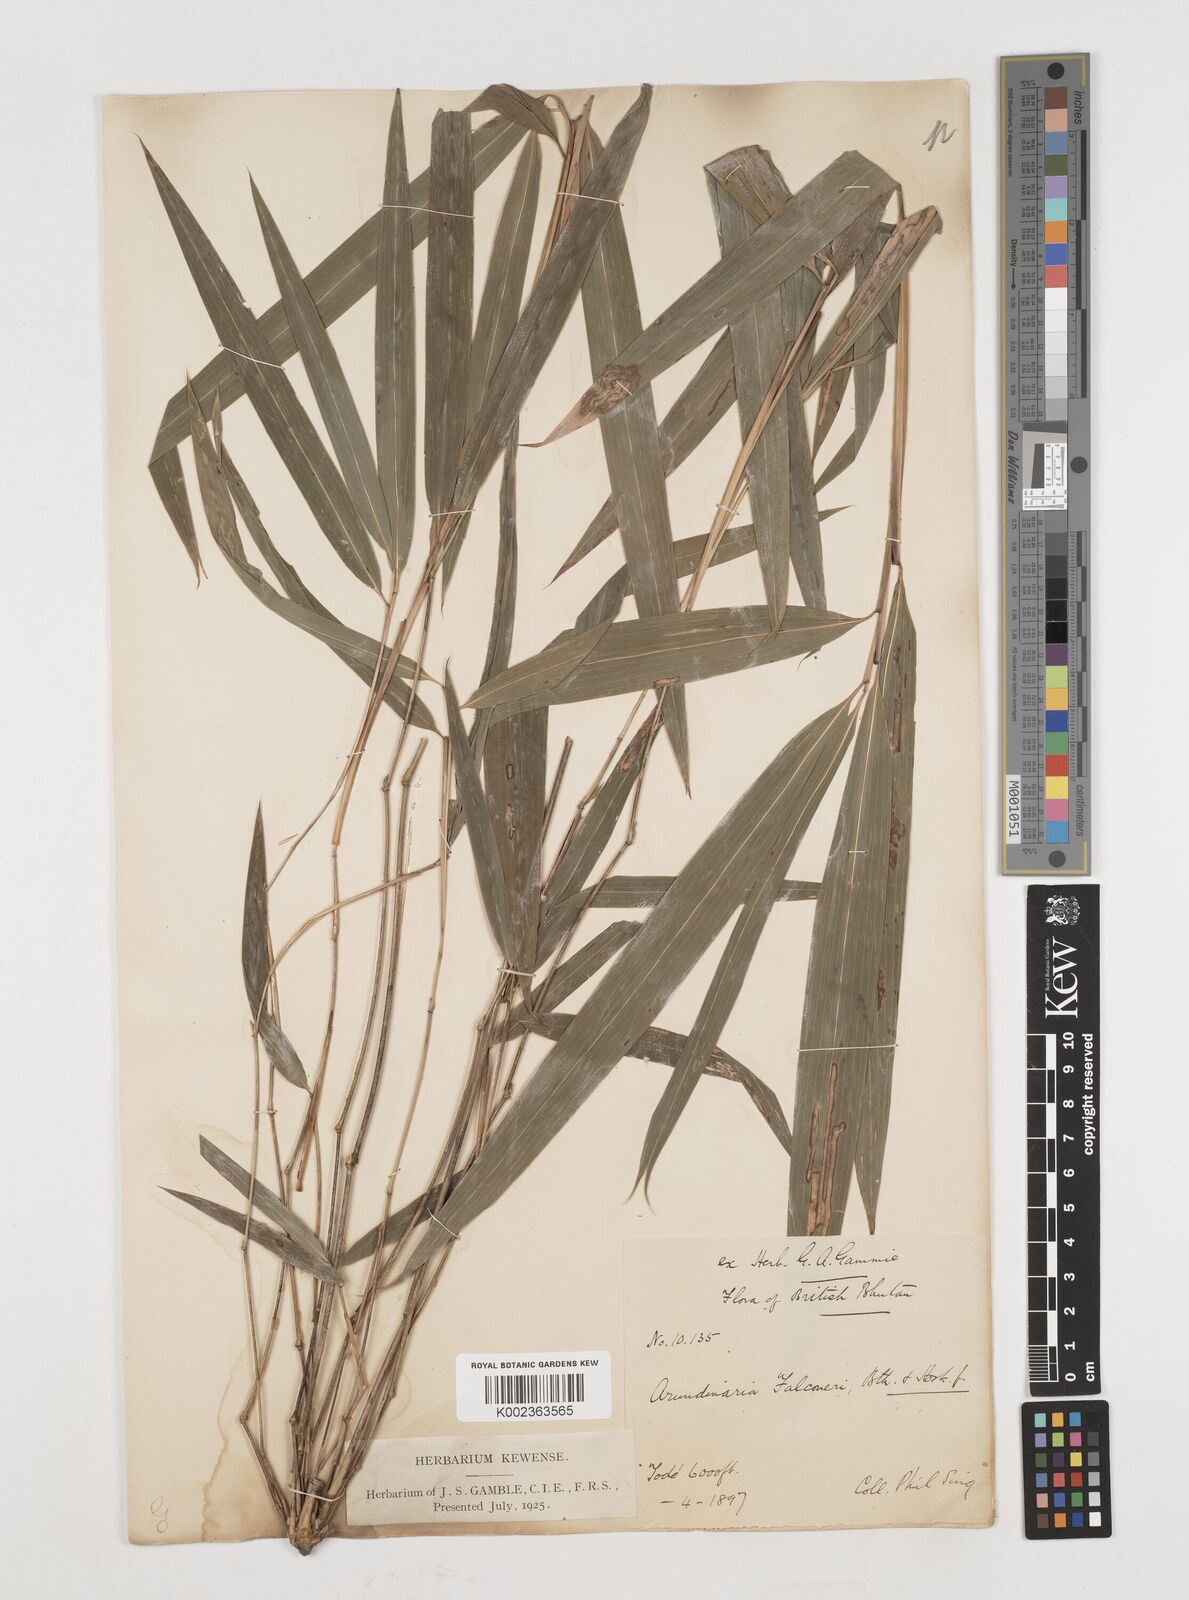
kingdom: Plantae
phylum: Tracheophyta
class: Liliopsida
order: Poales
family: Poaceae
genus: Himalayacalamus
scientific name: Himalayacalamus falconeri
